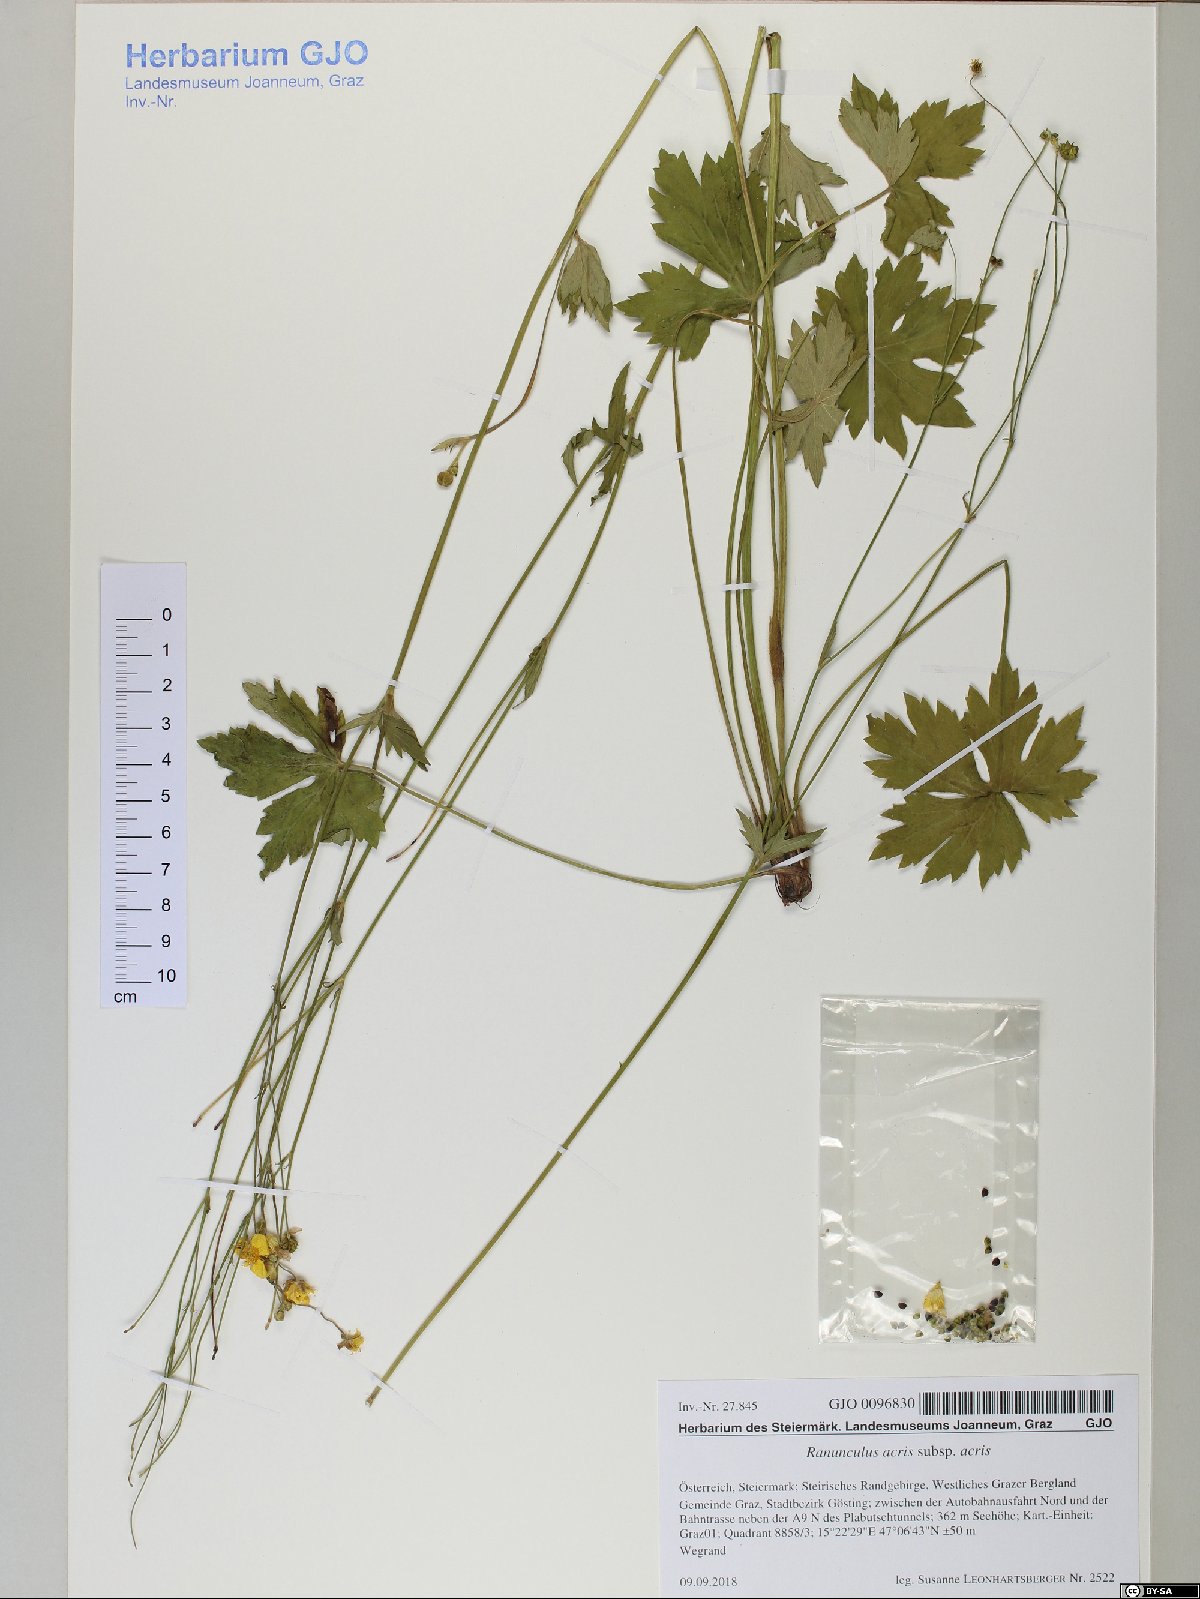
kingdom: Plantae
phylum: Tracheophyta
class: Magnoliopsida
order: Ranunculales
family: Ranunculaceae
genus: Ranunculus
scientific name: Ranunculus acris
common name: Meadow buttercup
